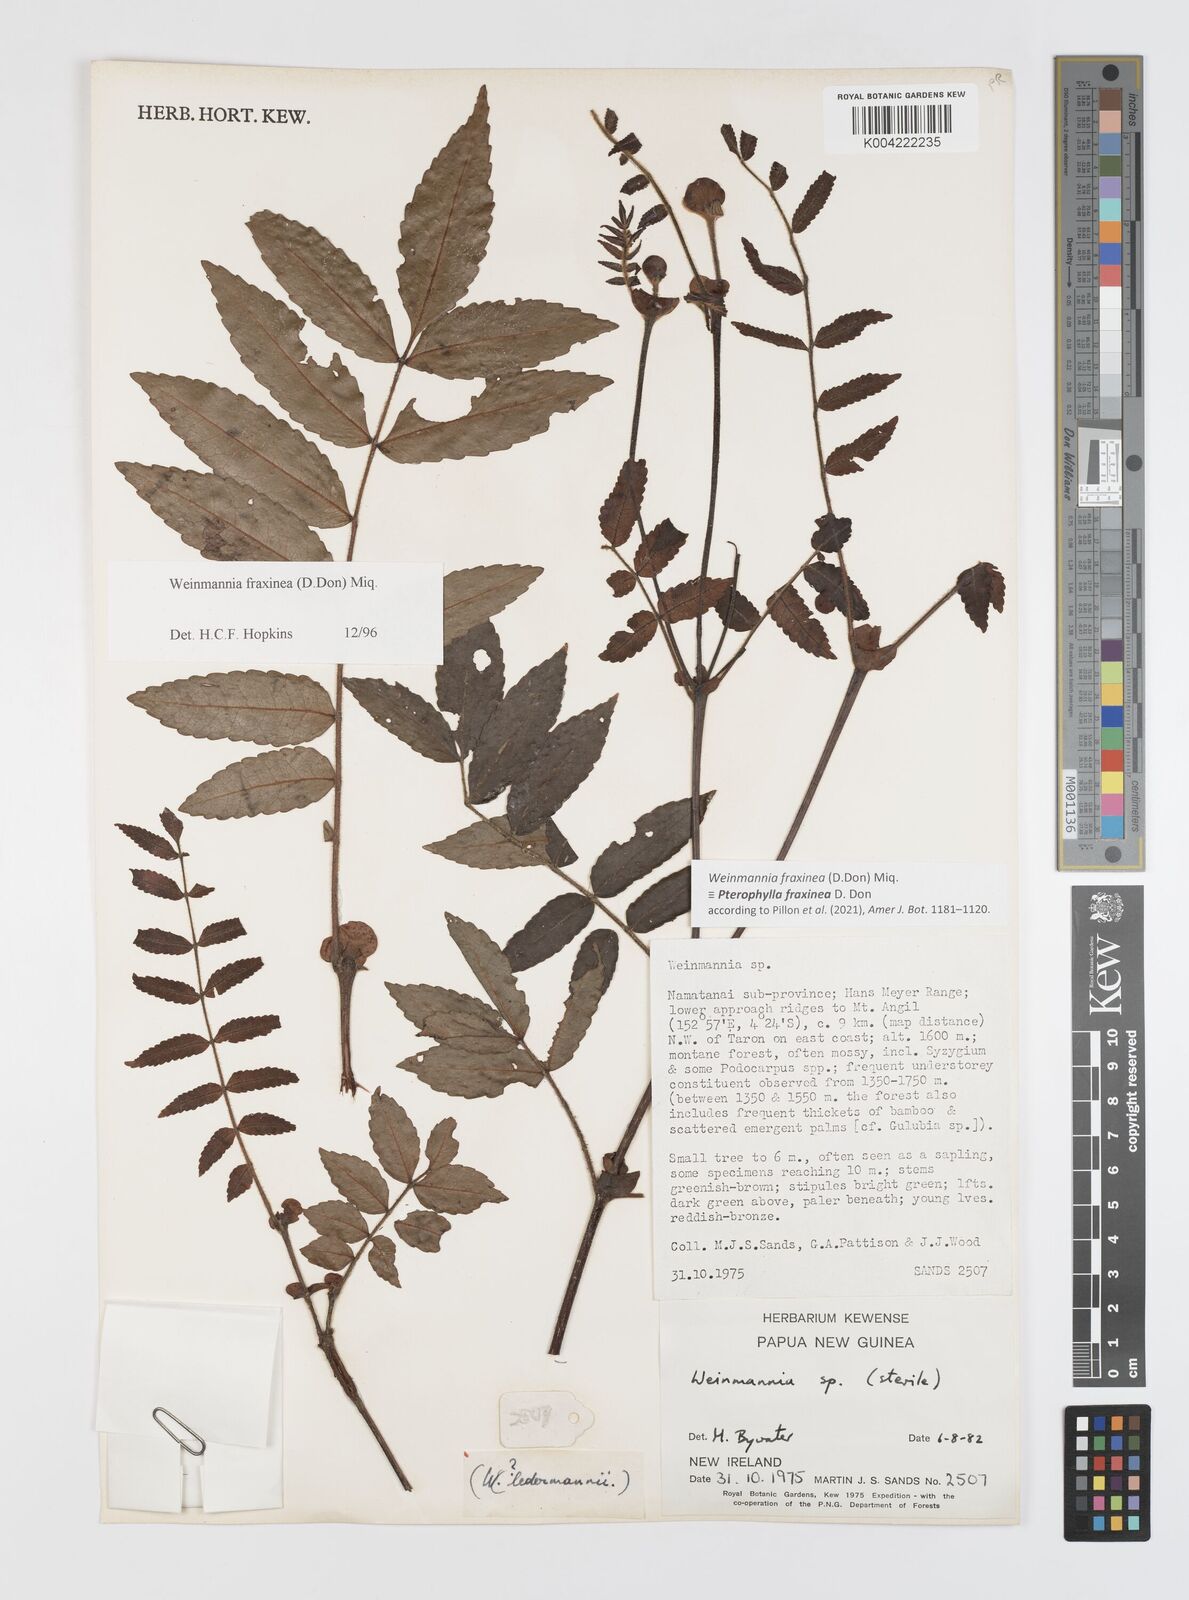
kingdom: Plantae
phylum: Tracheophyta
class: Magnoliopsida
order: Oxalidales
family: Cunoniaceae
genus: Pterophylla
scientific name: Pterophylla fraxinea
